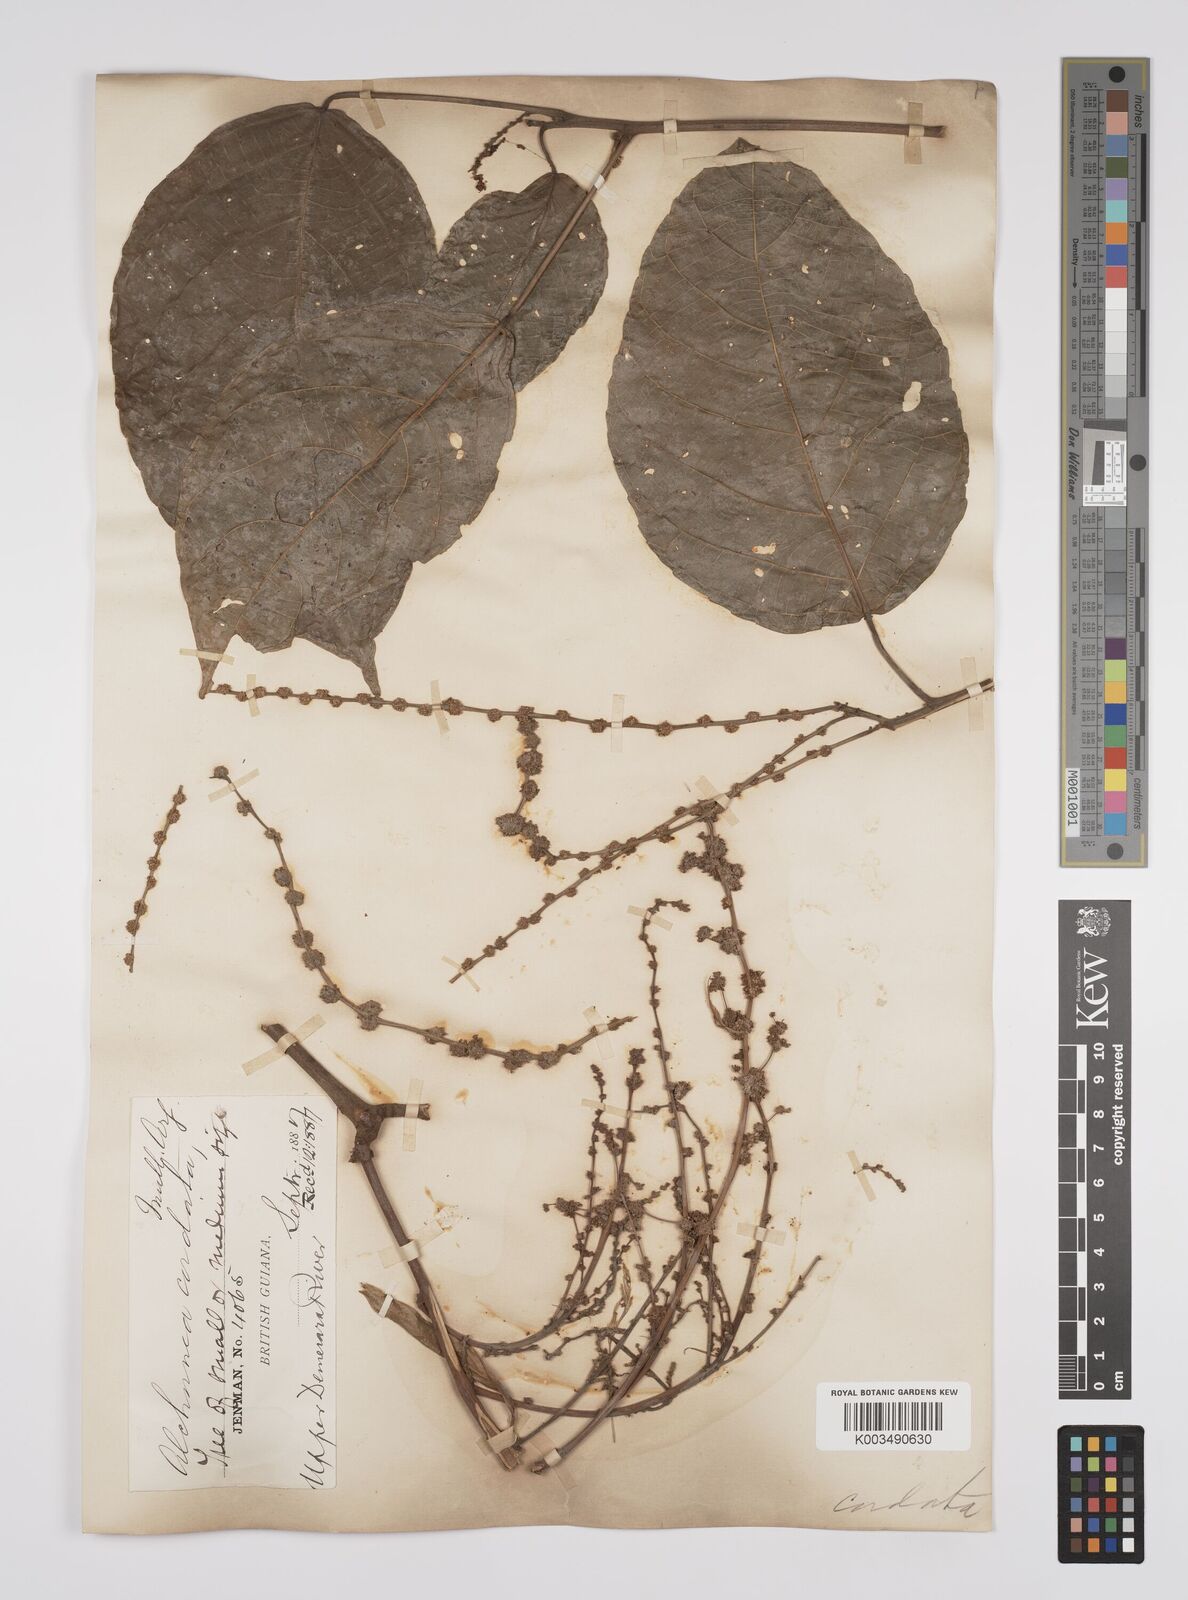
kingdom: Plantae
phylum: Tracheophyta
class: Magnoliopsida
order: Malpighiales
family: Euphorbiaceae
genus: Aparisthmium
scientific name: Aparisthmium cordatum
